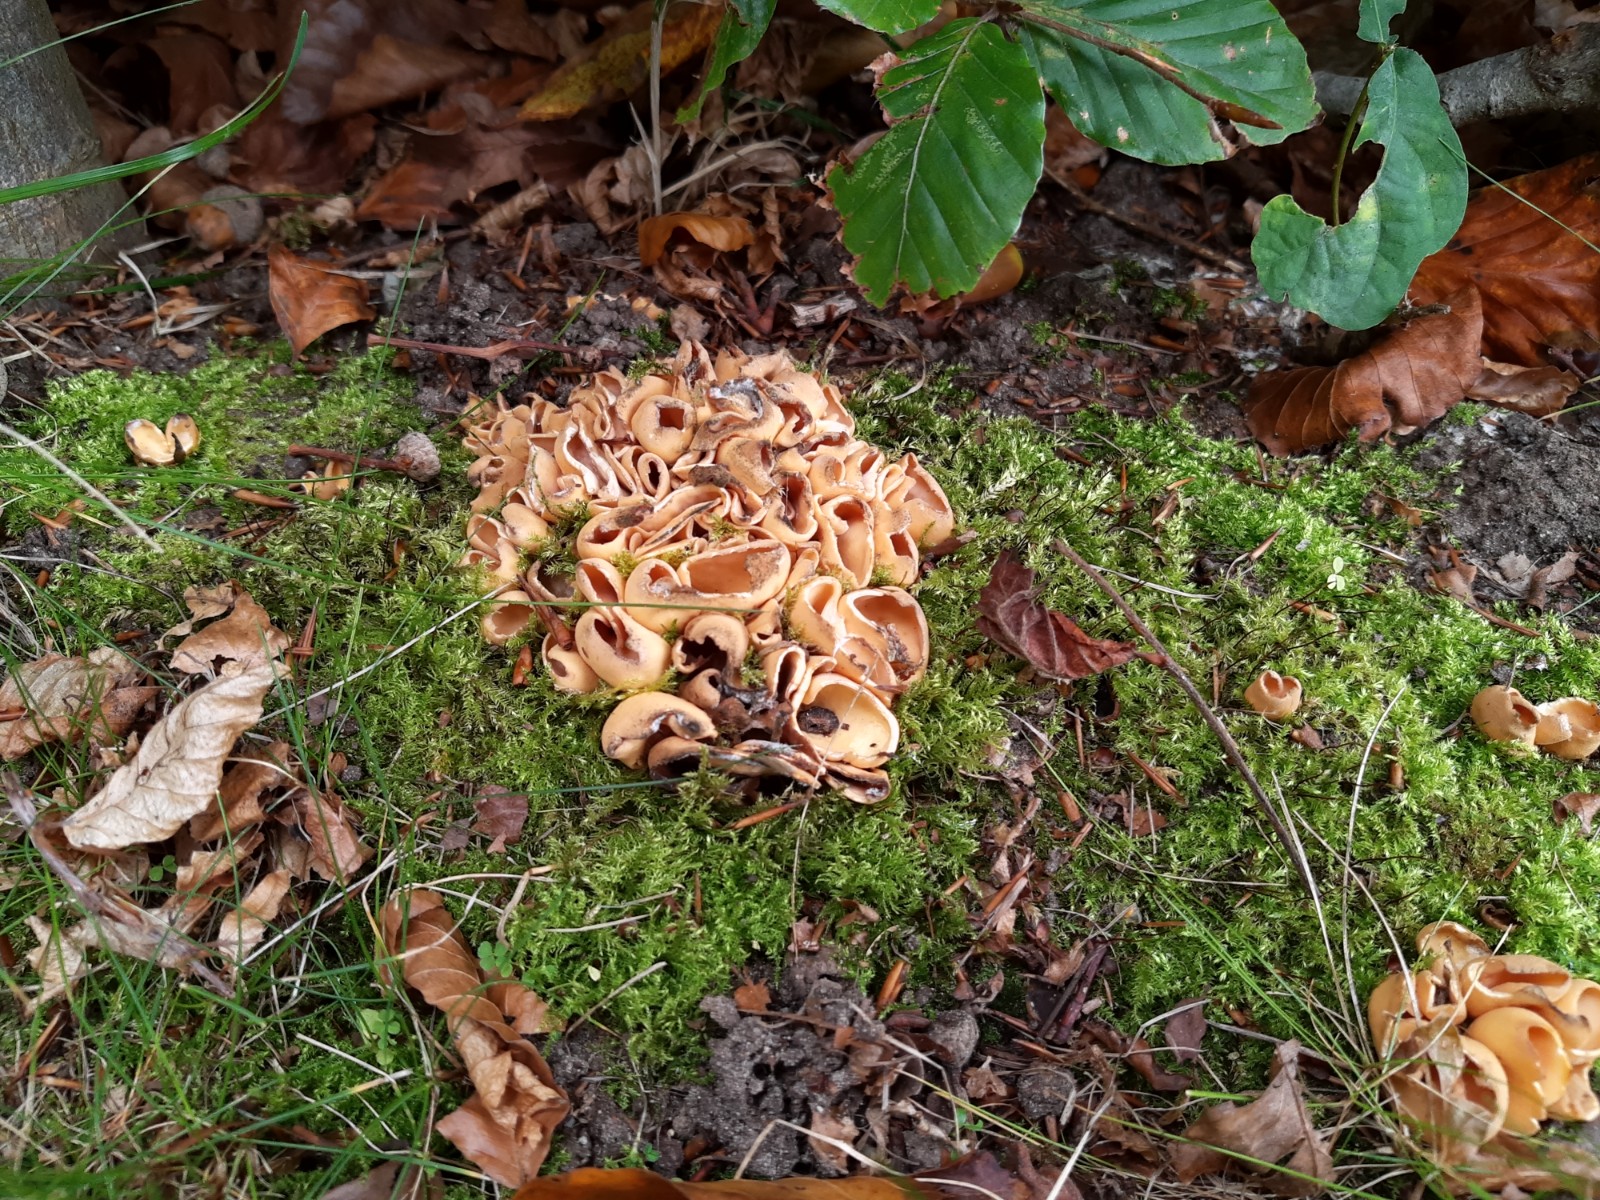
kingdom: Fungi
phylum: Ascomycota
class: Pezizomycetes
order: Pezizales
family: Otideaceae
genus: Otidea
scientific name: Otidea onotica
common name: æsel-ørebæger
